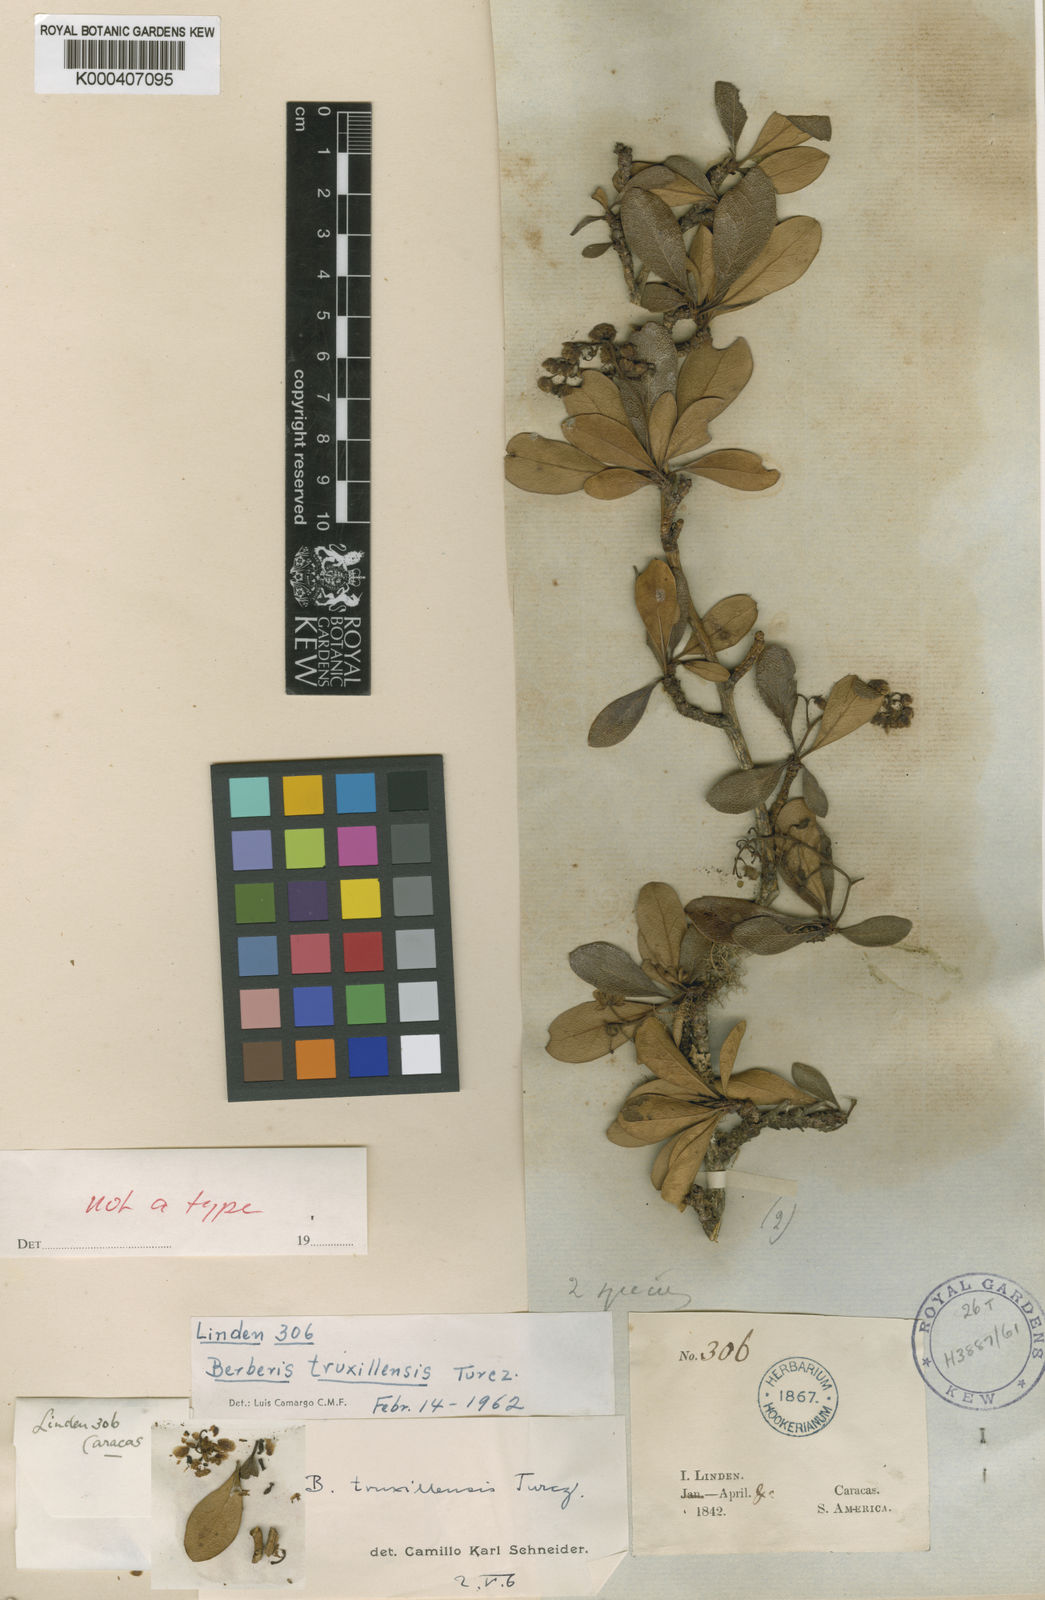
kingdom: Plantae
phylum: Tracheophyta
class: Magnoliopsida
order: Ranunculales
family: Berberidaceae
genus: Berberis
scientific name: Berberis truxillensis
